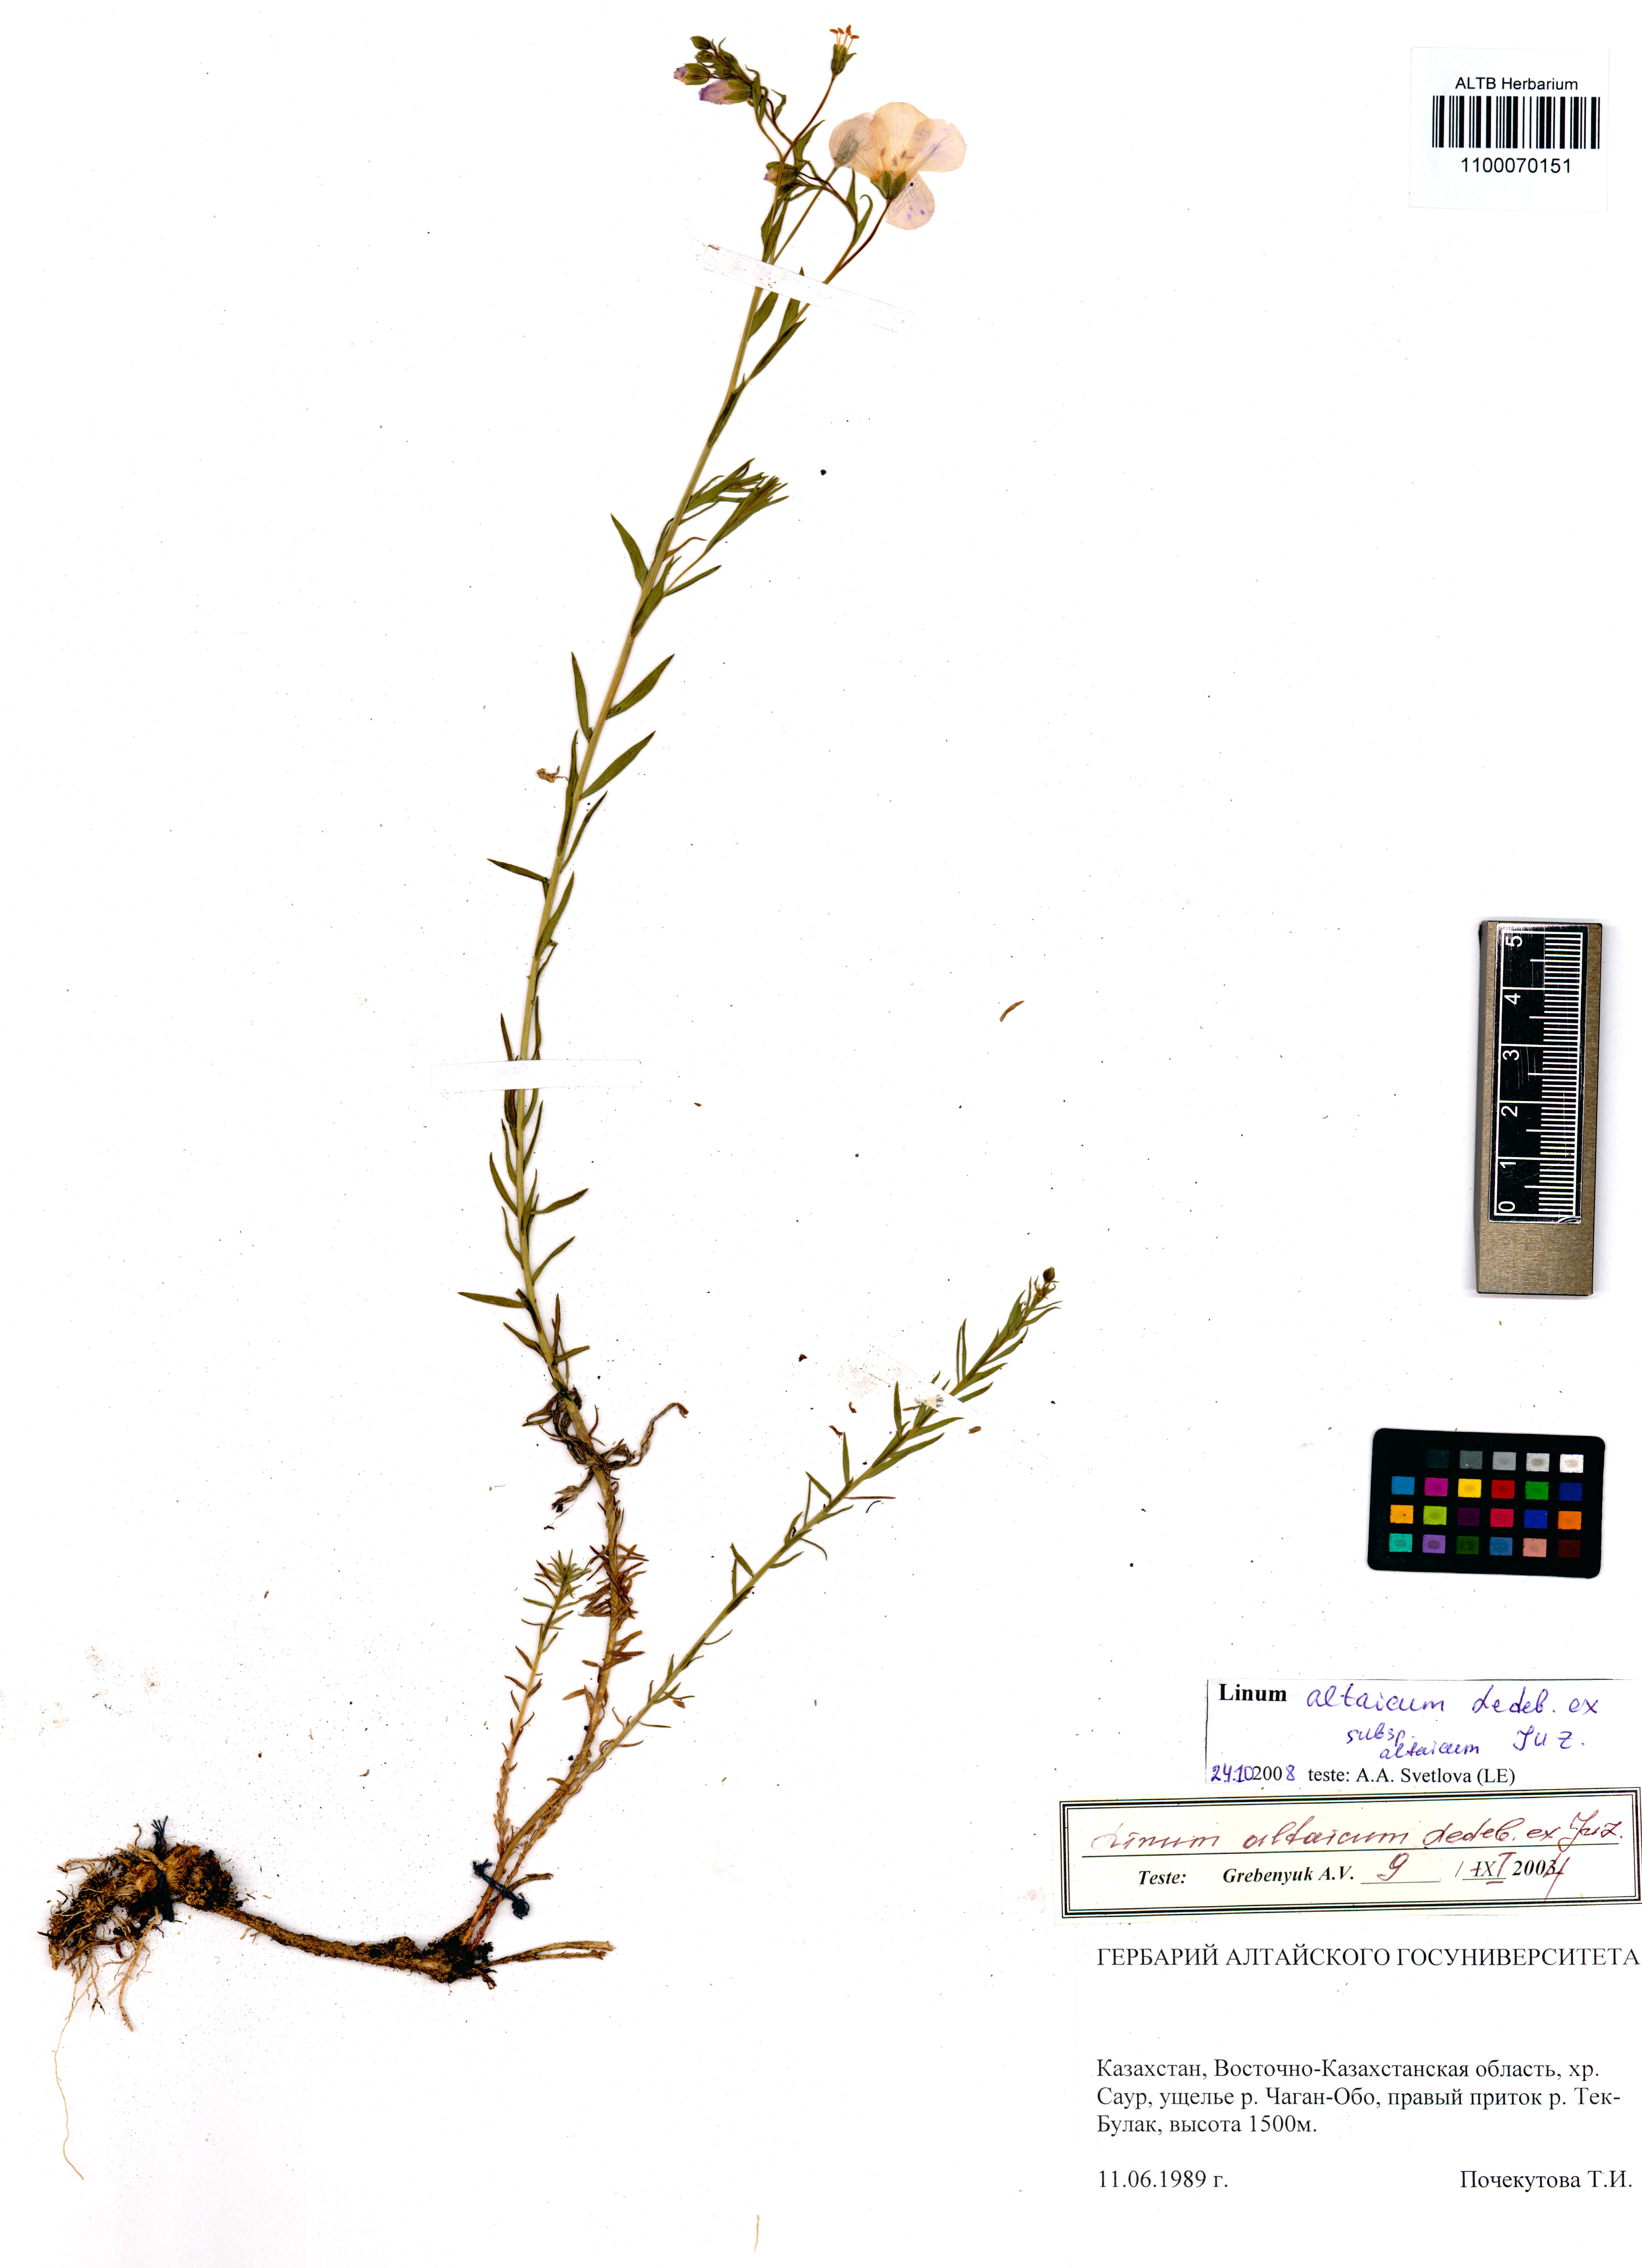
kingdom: Plantae
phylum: Tracheophyta
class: Magnoliopsida
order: Malpighiales
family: Linaceae
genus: Linum
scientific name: Linum altaicum
